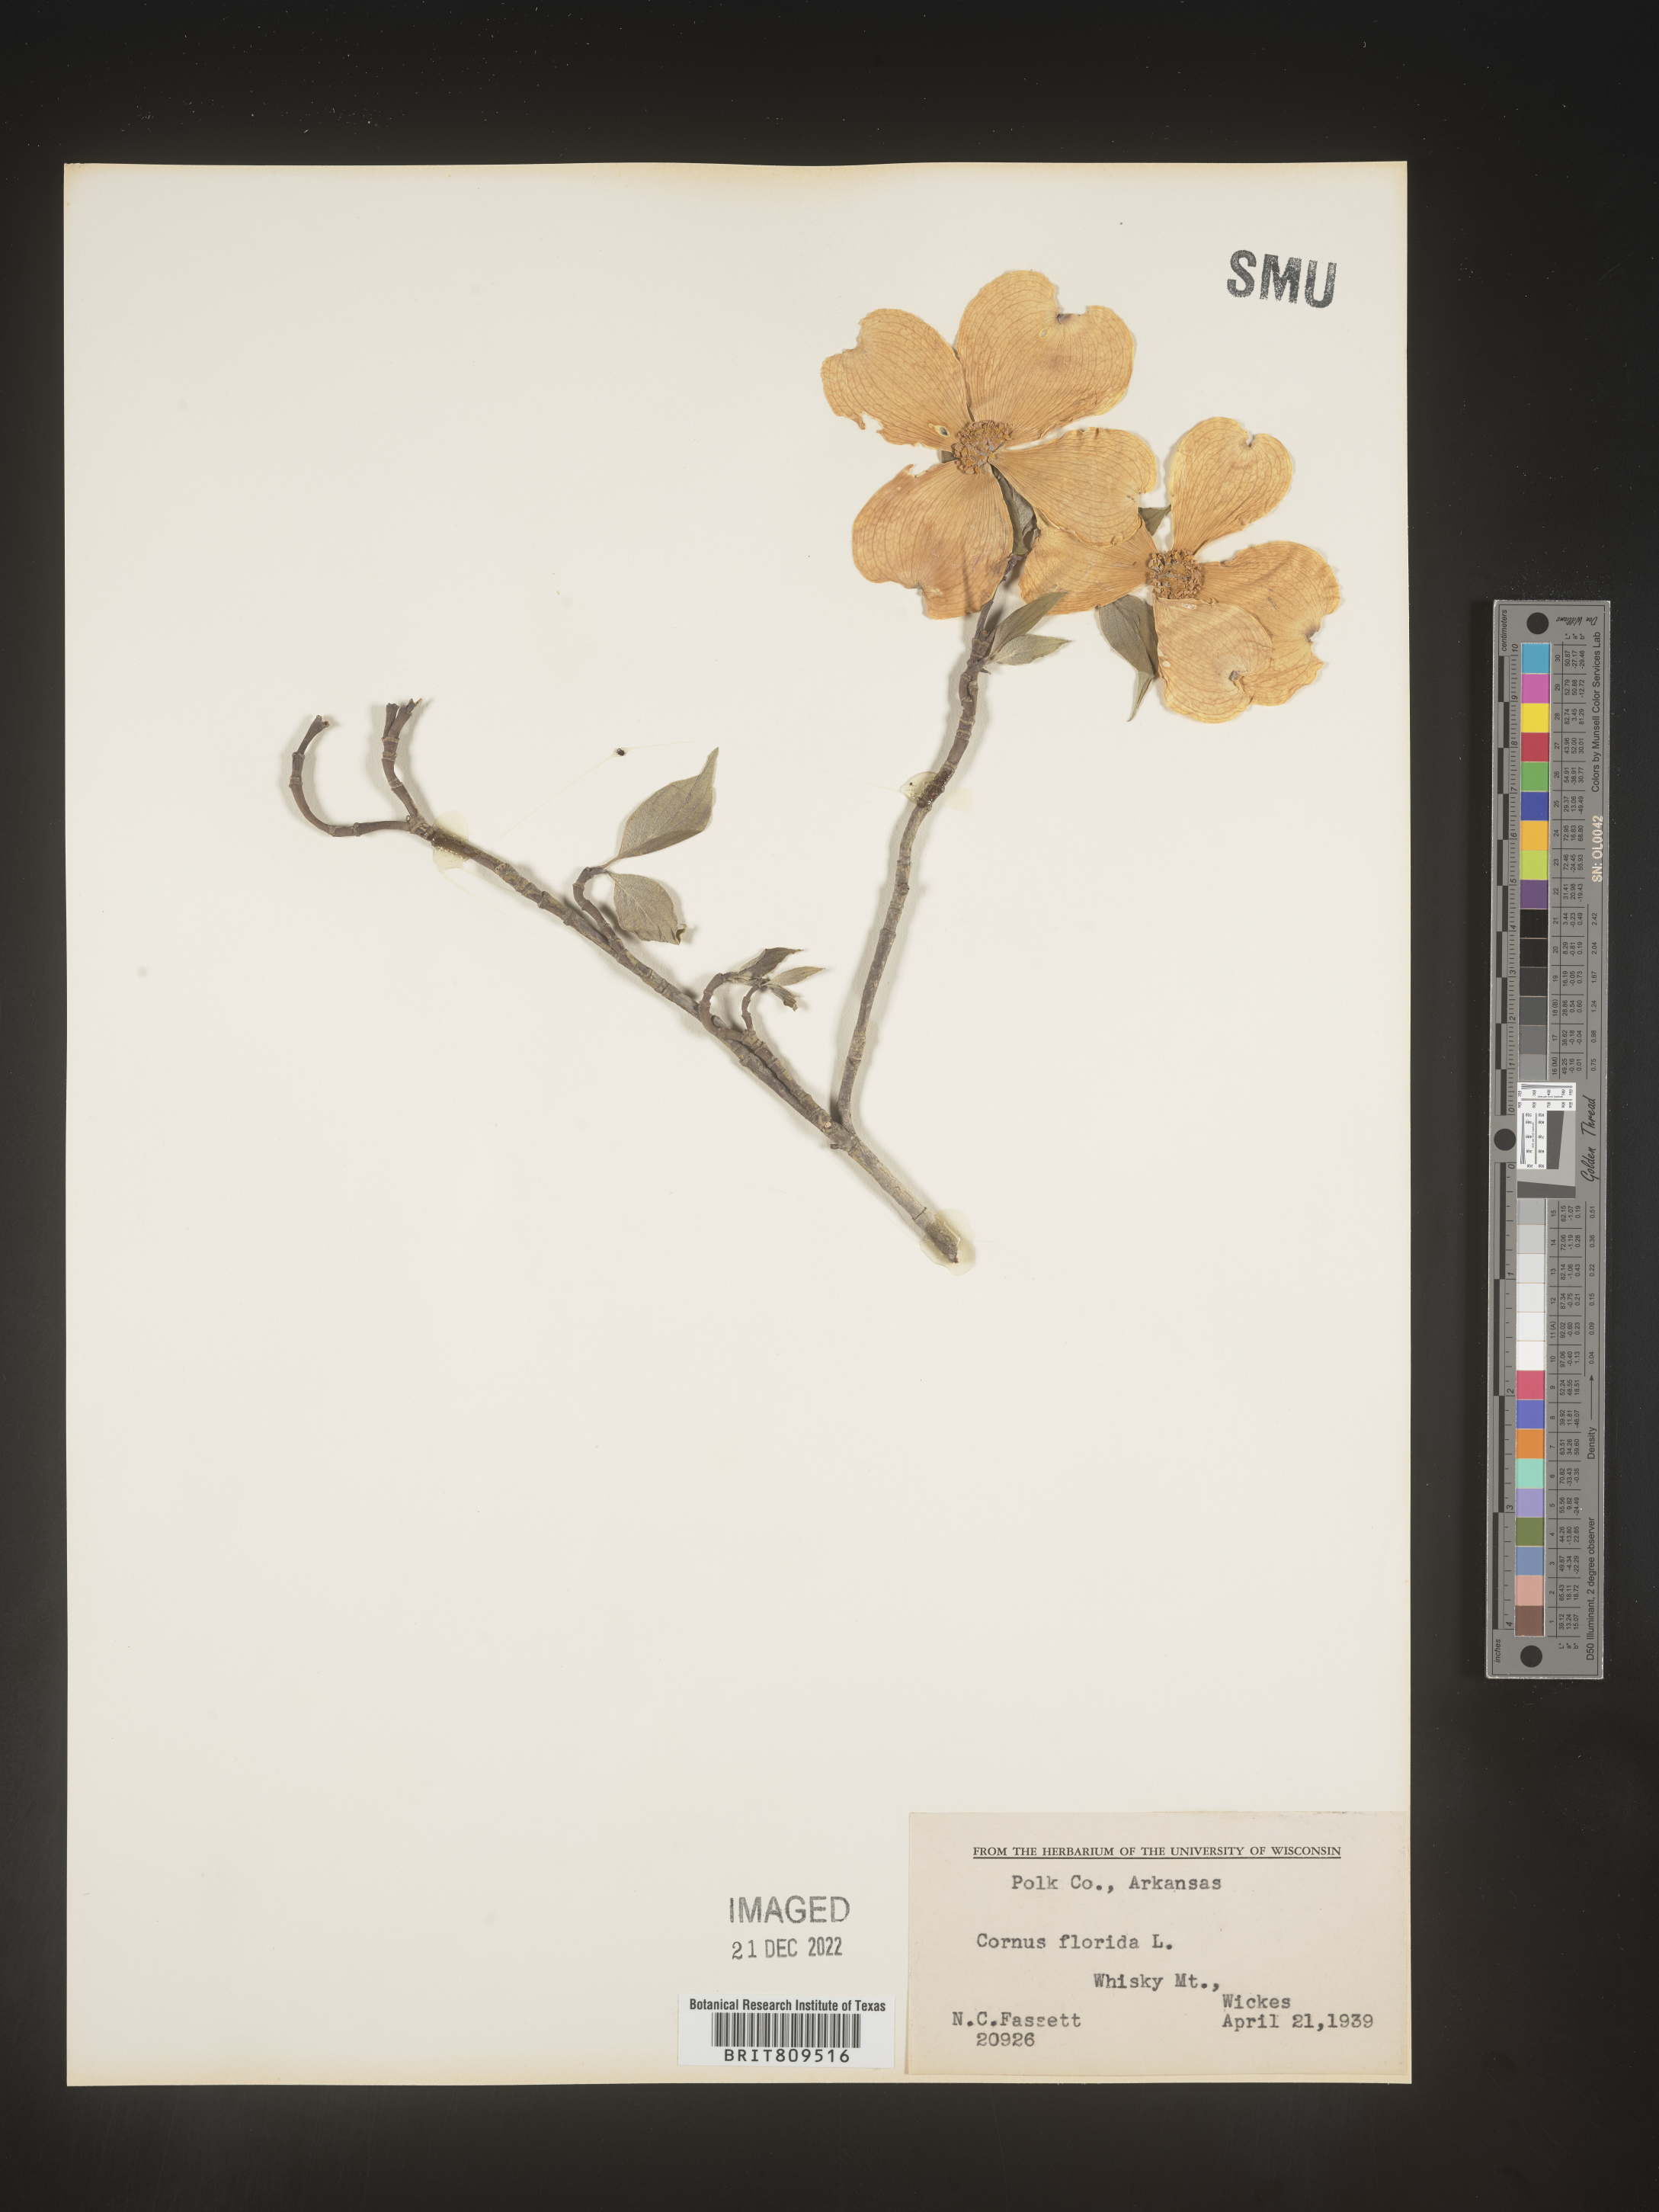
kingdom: Plantae
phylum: Tracheophyta
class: Magnoliopsida
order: Cornales
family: Cornaceae
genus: Cornus
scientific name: Cornus florida
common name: Flowering dogwood
